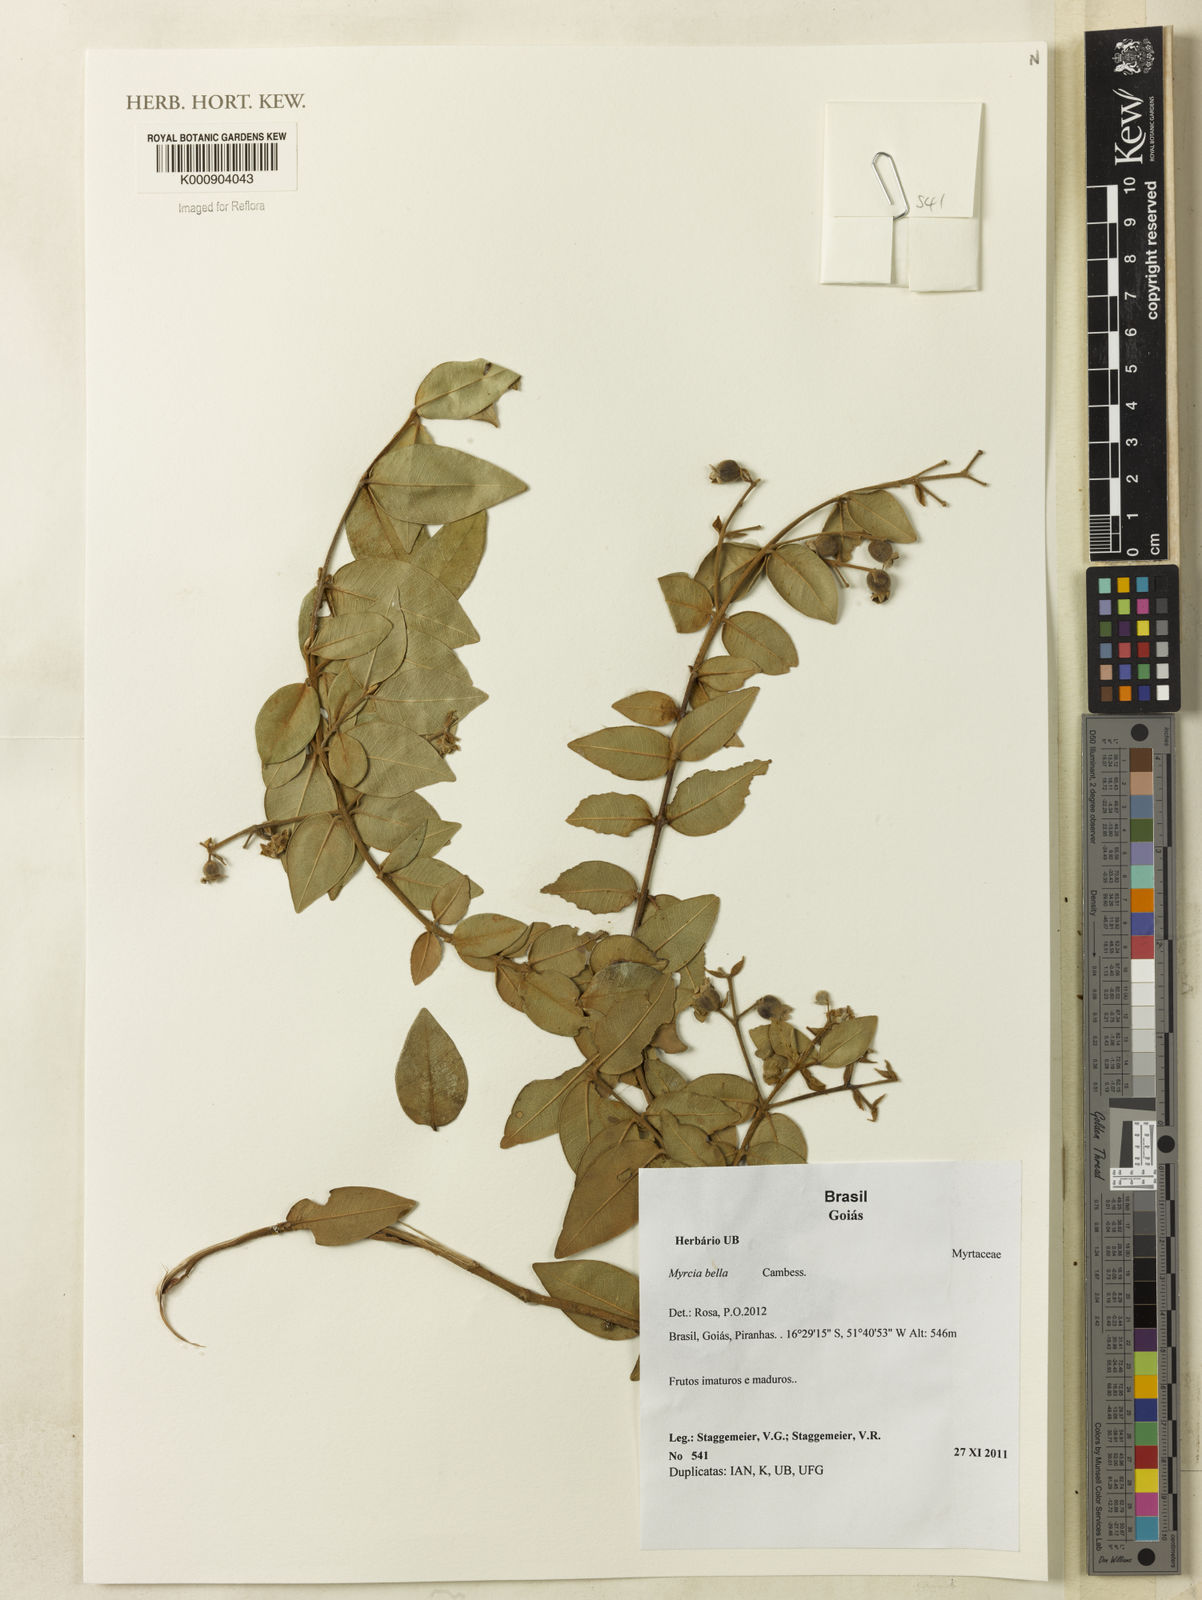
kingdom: Plantae
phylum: Tracheophyta
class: Magnoliopsida
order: Myrtales
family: Myrtaceae
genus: Myrcia
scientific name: Myrcia bella
